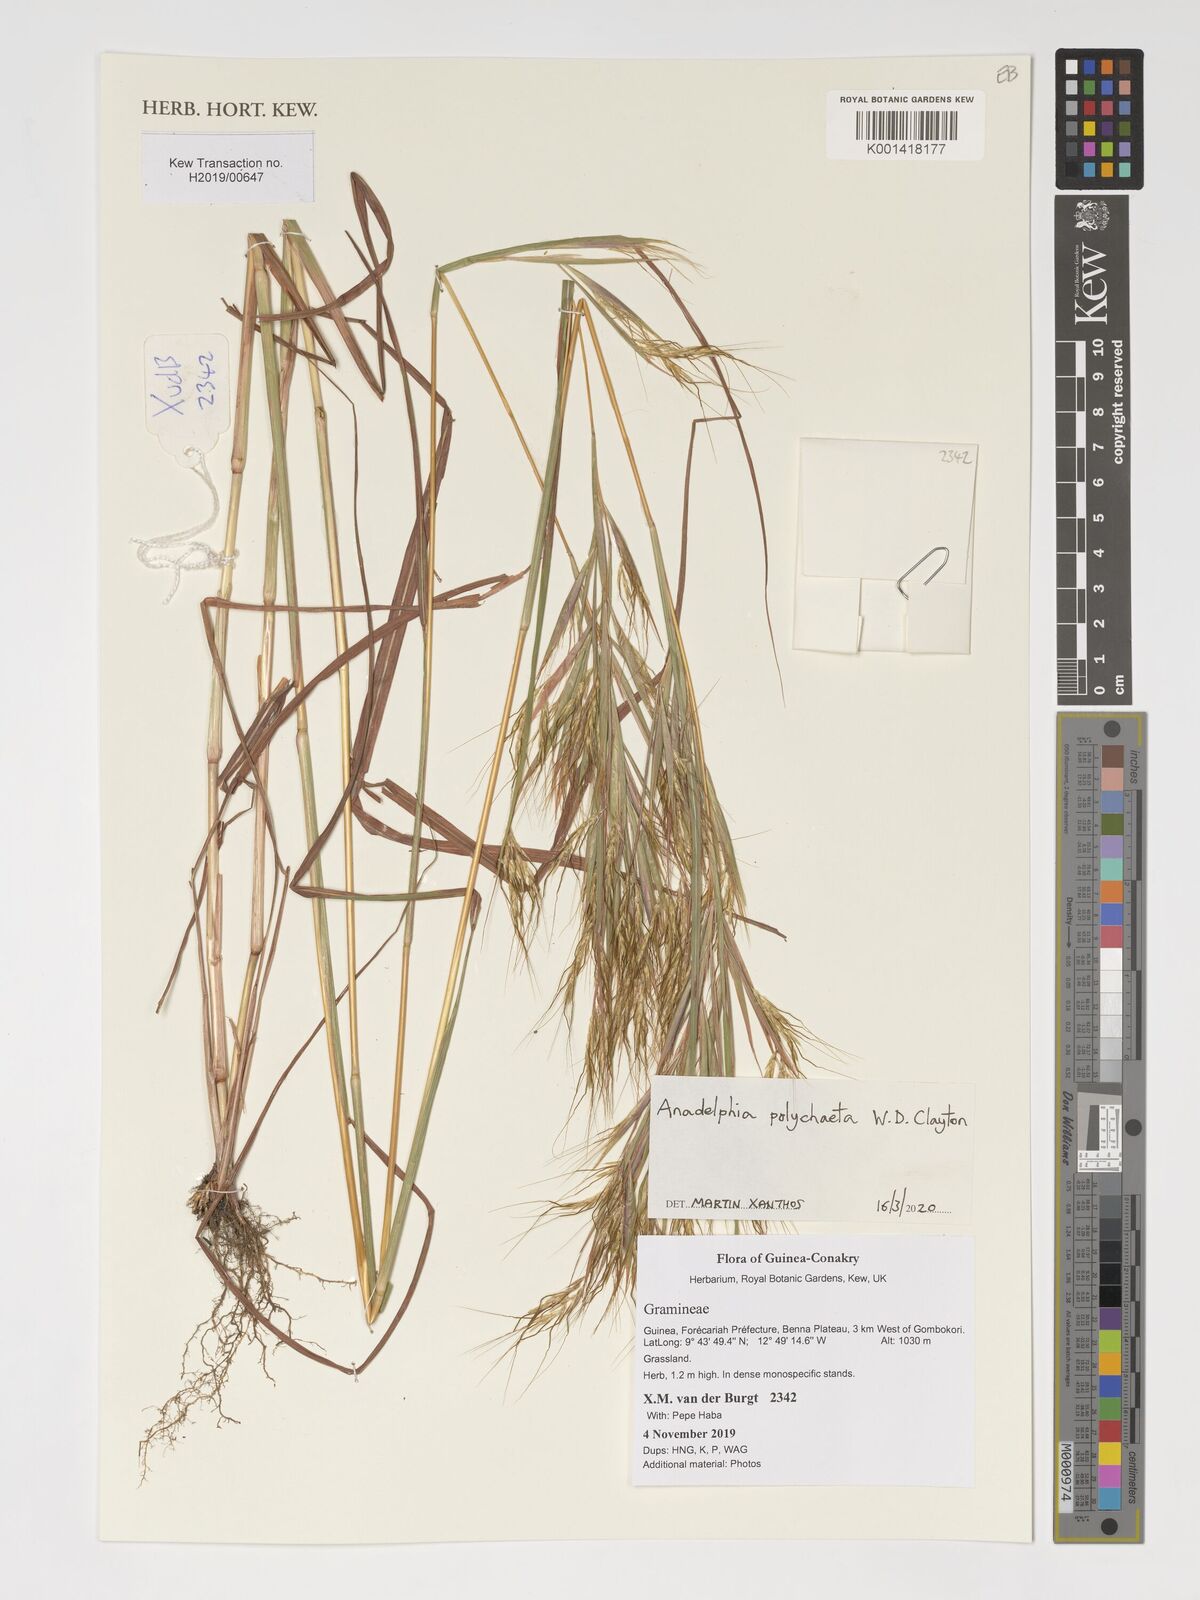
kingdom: Plantae
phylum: Tracheophyta
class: Liliopsida
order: Poales
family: Poaceae
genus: Anadelphia
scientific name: Anadelphia polychaeta
